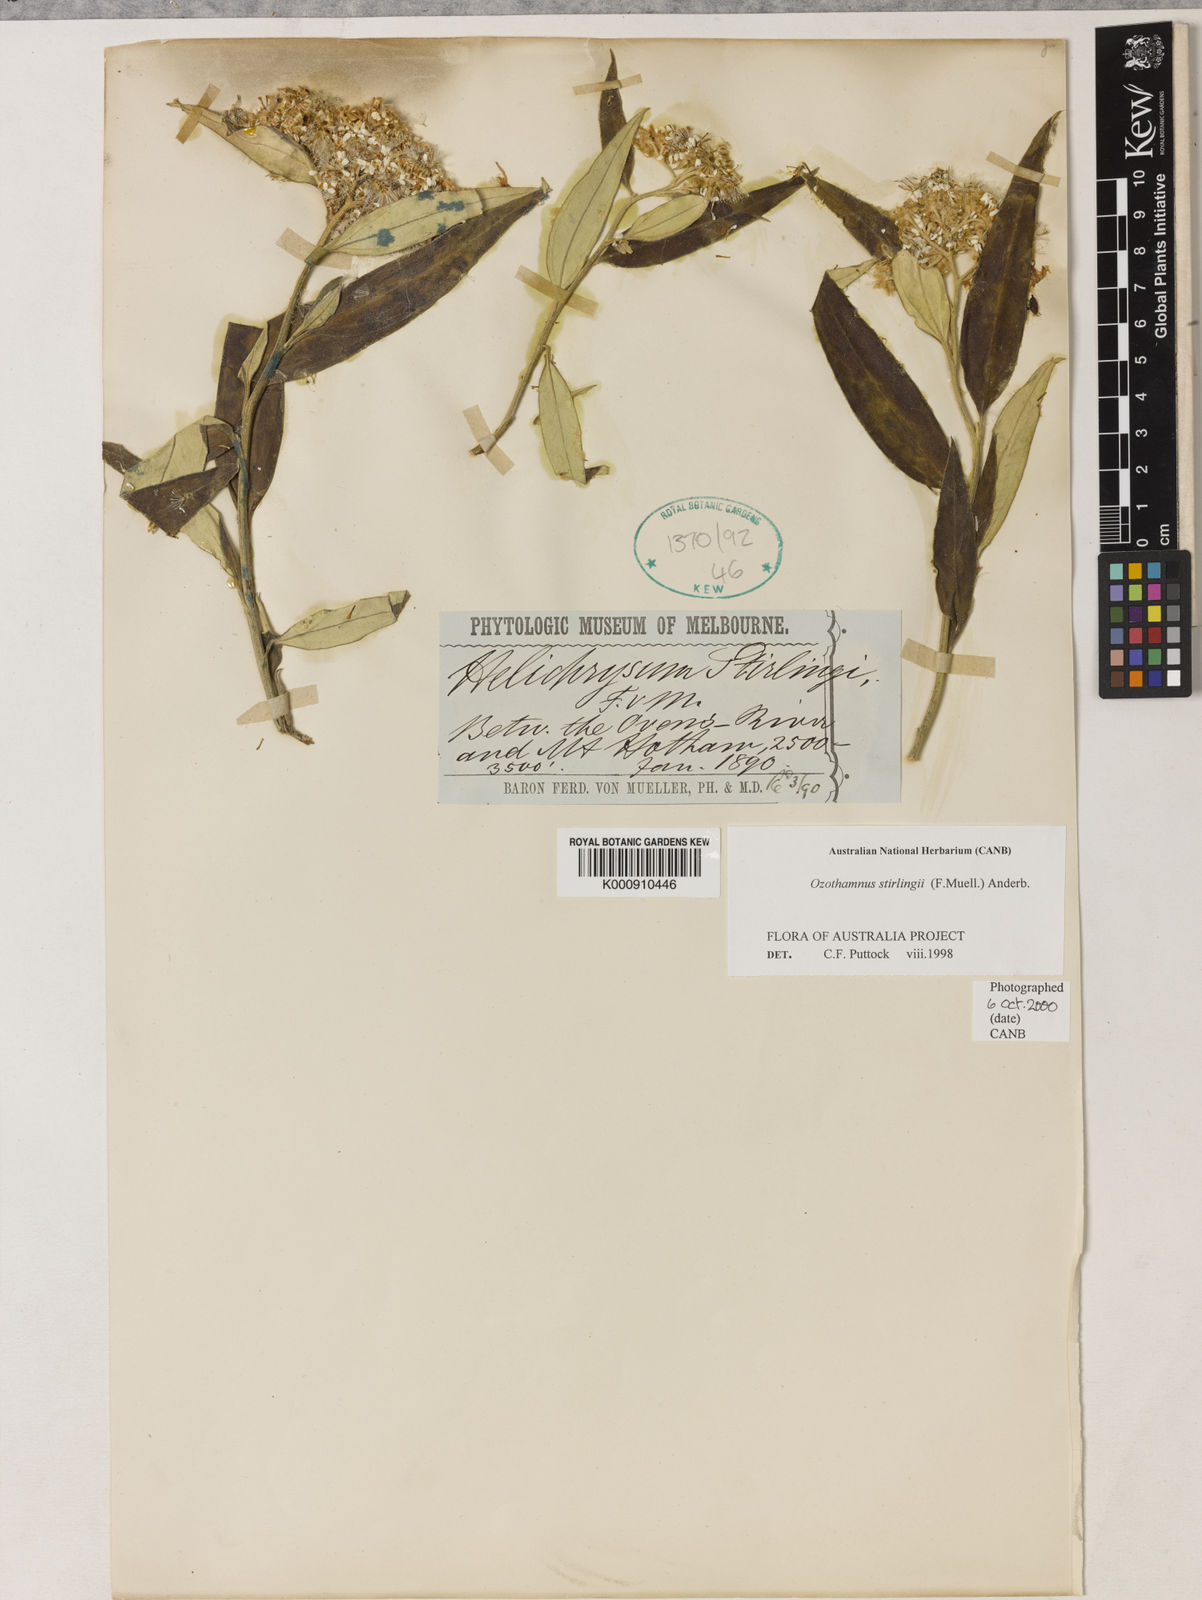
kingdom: Plantae
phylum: Tracheophyta
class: Magnoliopsida
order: Asterales
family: Asteraceae
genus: Ozothamnus
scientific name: Ozothamnus stirlingii
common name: Ovens everlasting
